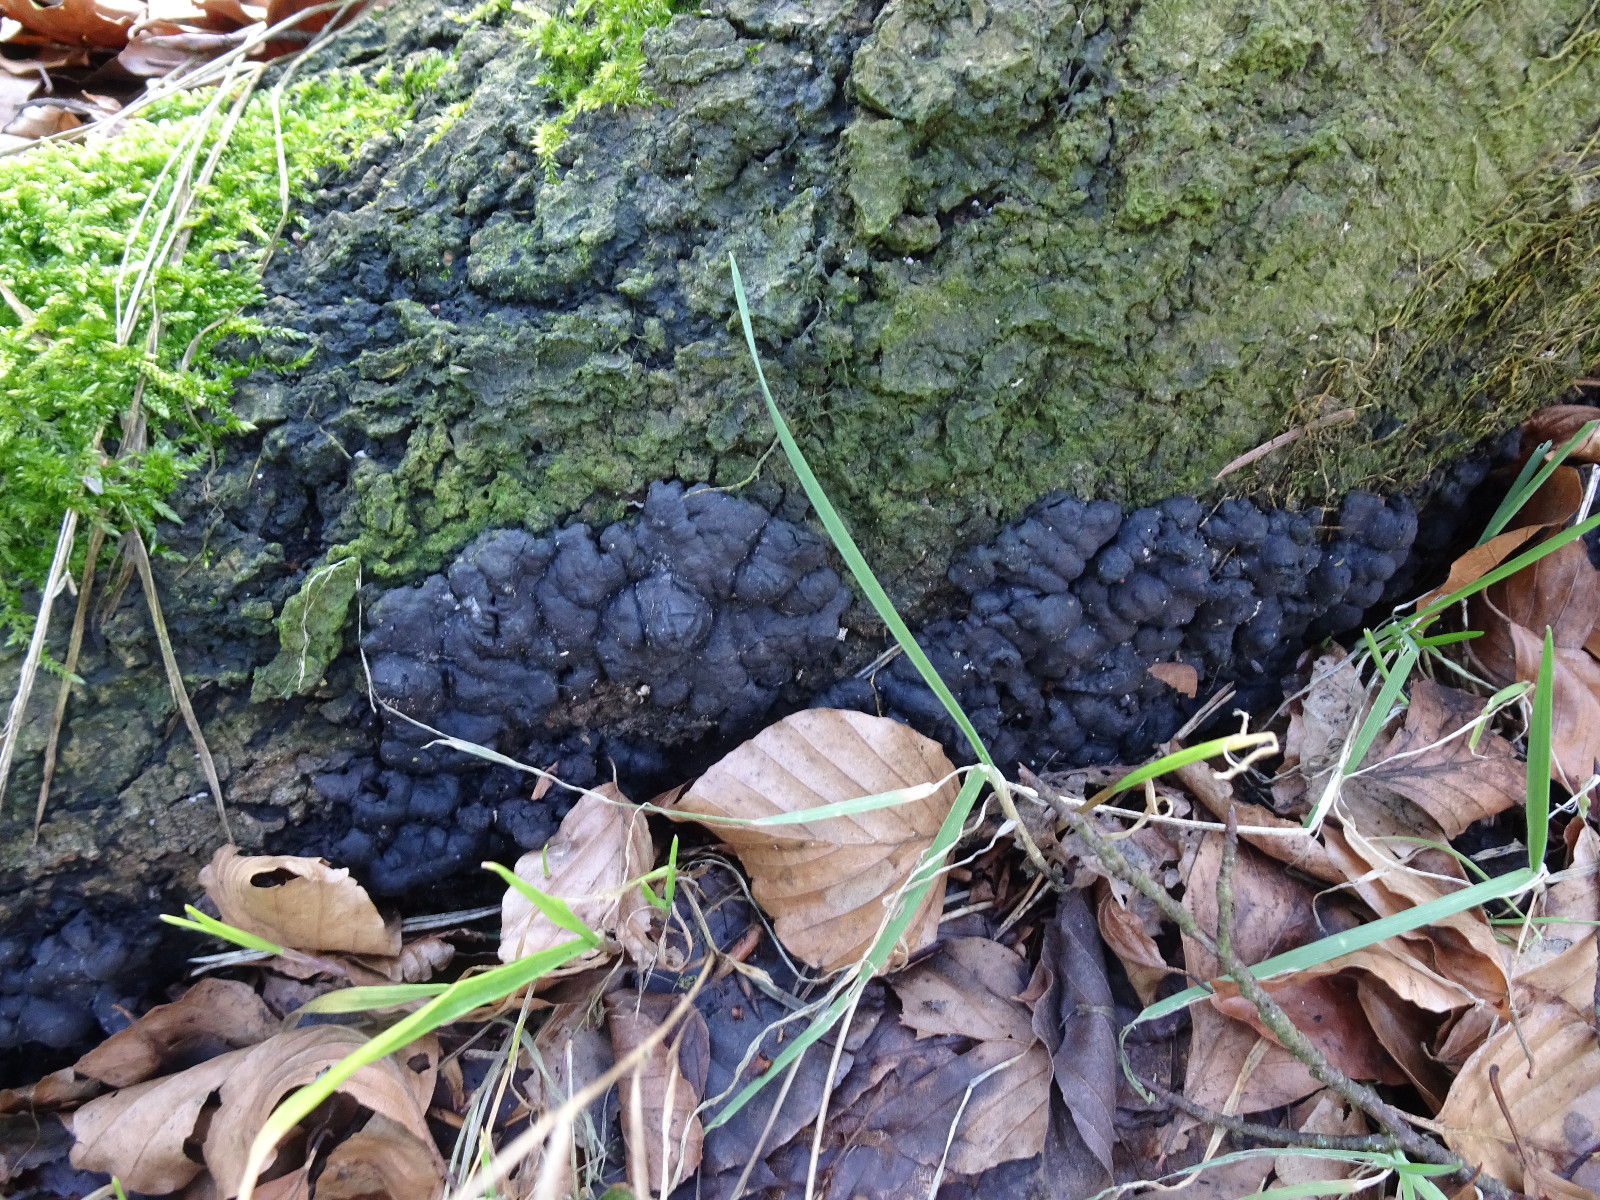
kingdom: Fungi
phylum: Ascomycota
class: Sordariomycetes
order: Xylariales
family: Xylariaceae
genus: Kretzschmaria
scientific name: Kretzschmaria deusta
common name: stor kulsvamp
